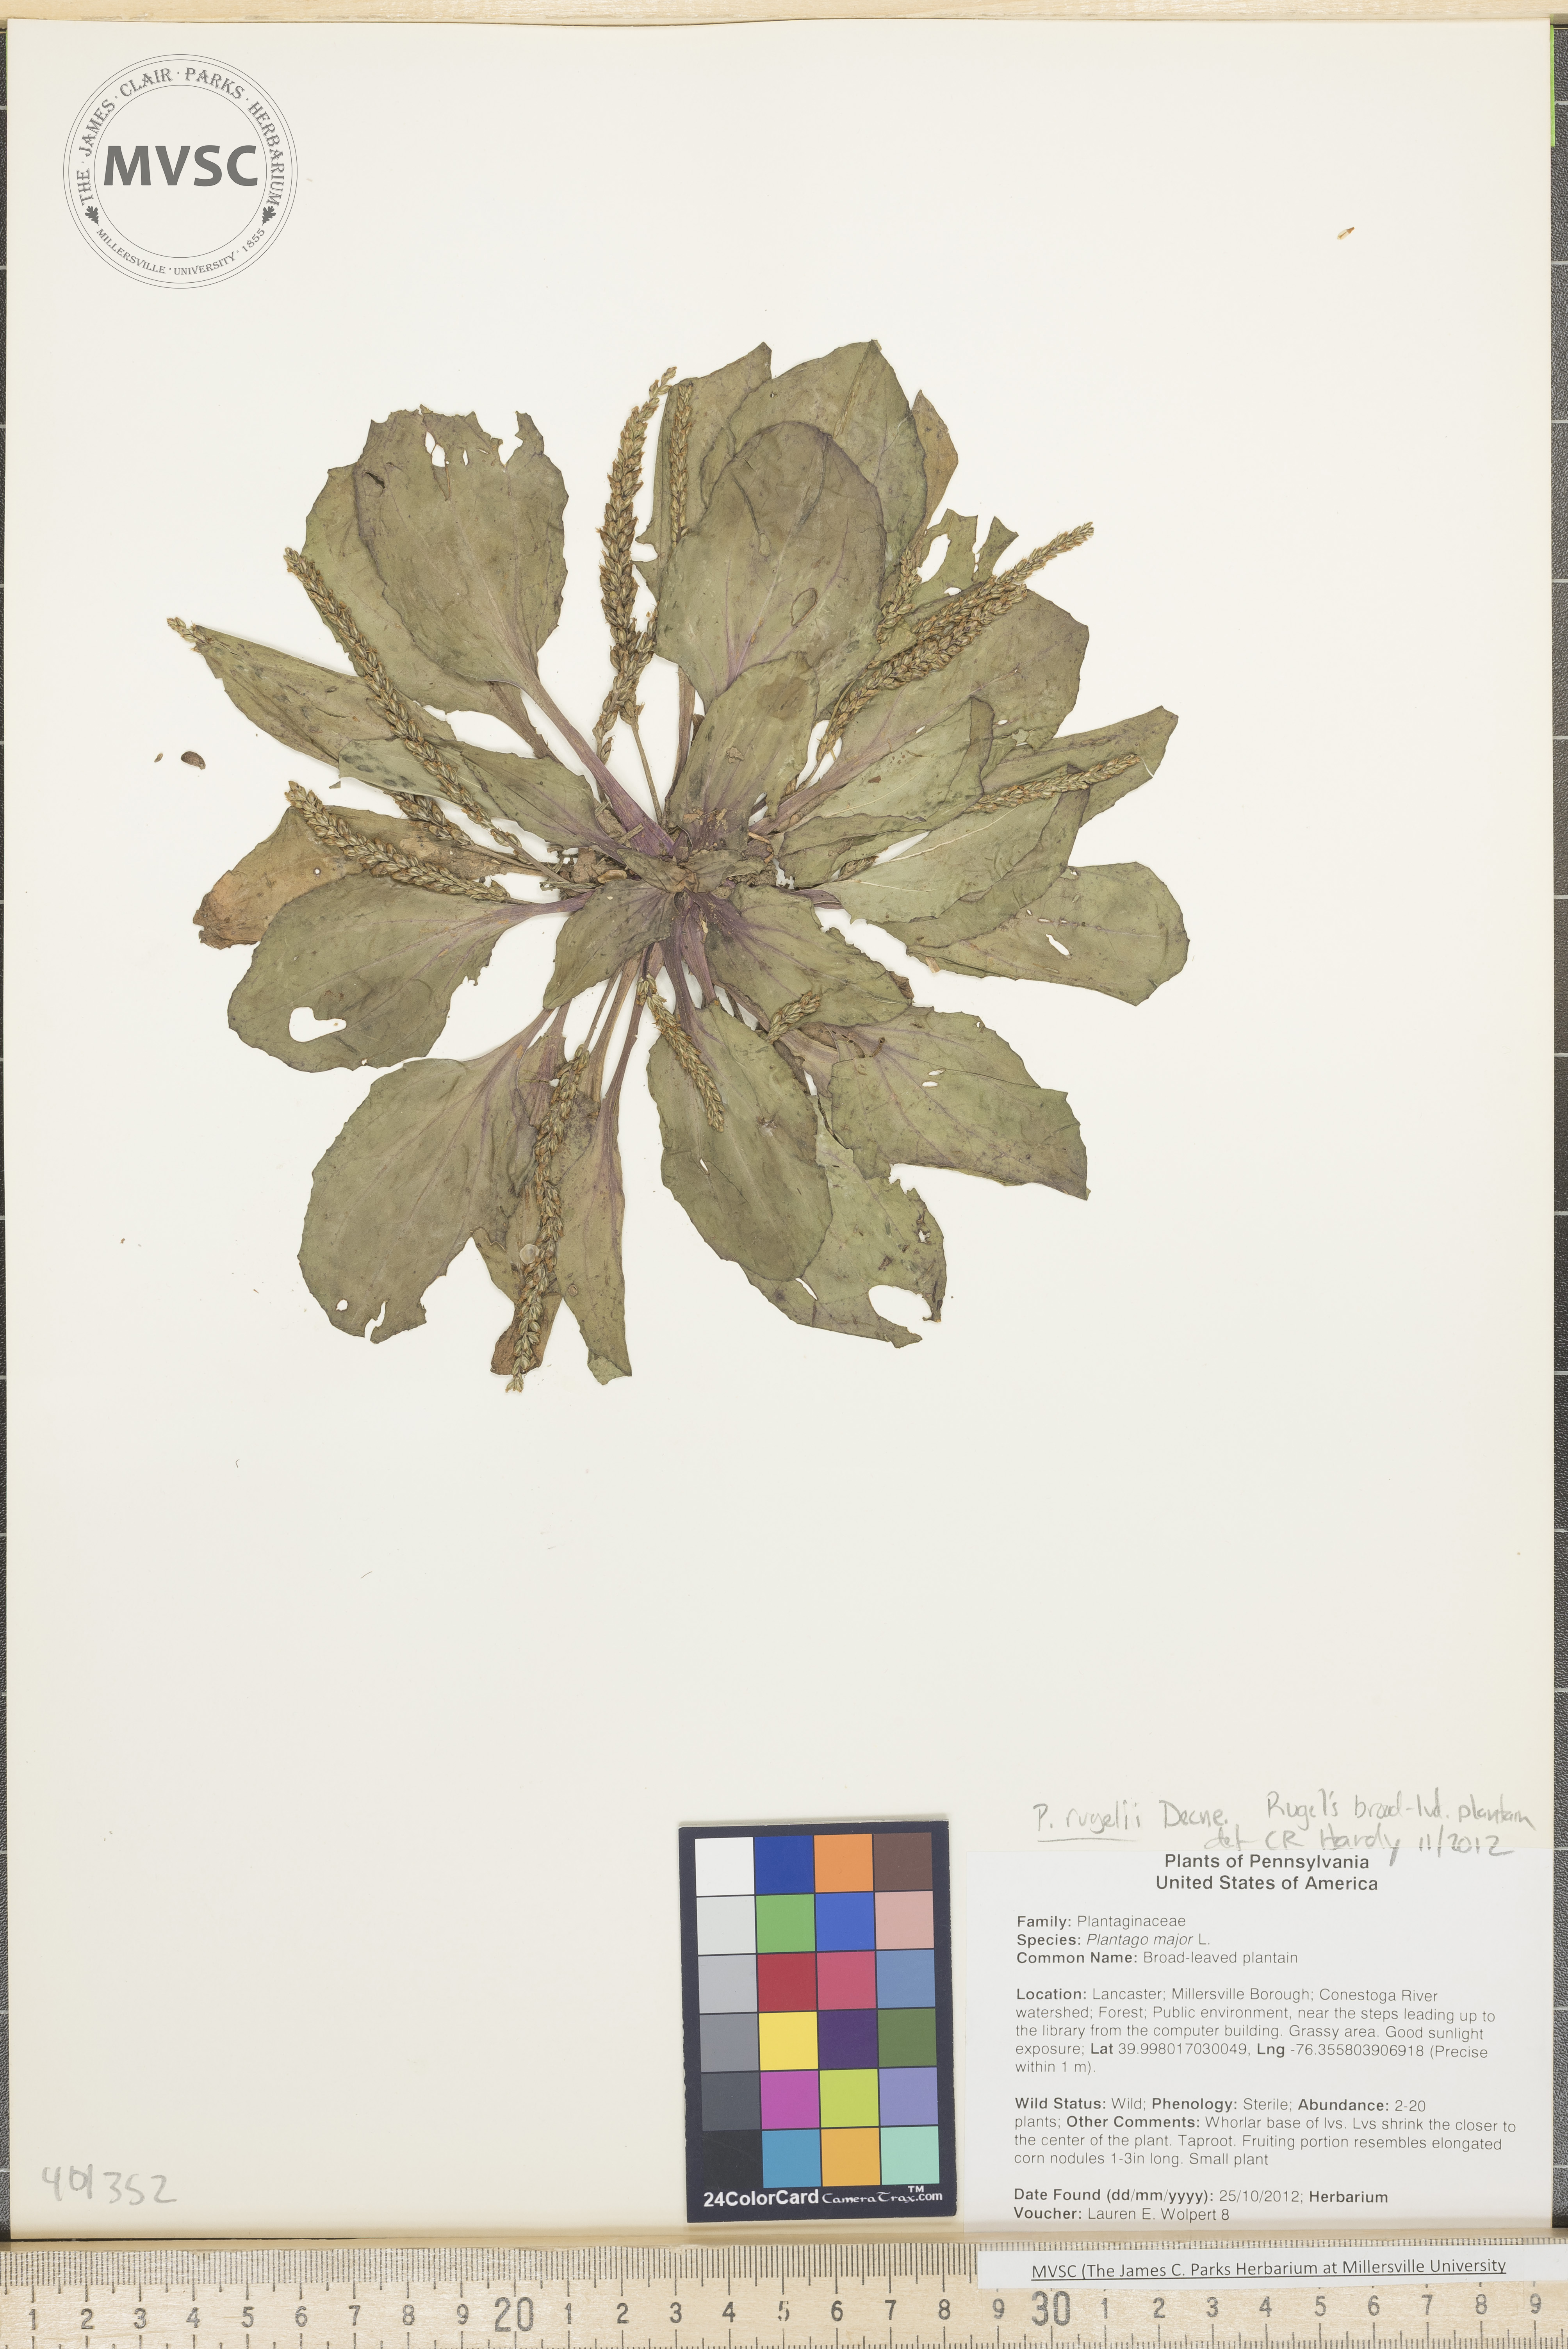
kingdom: Plantae
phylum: Tracheophyta
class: Magnoliopsida
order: Lamiales
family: Plantaginaceae
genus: Plantago
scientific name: Plantago rugelii
